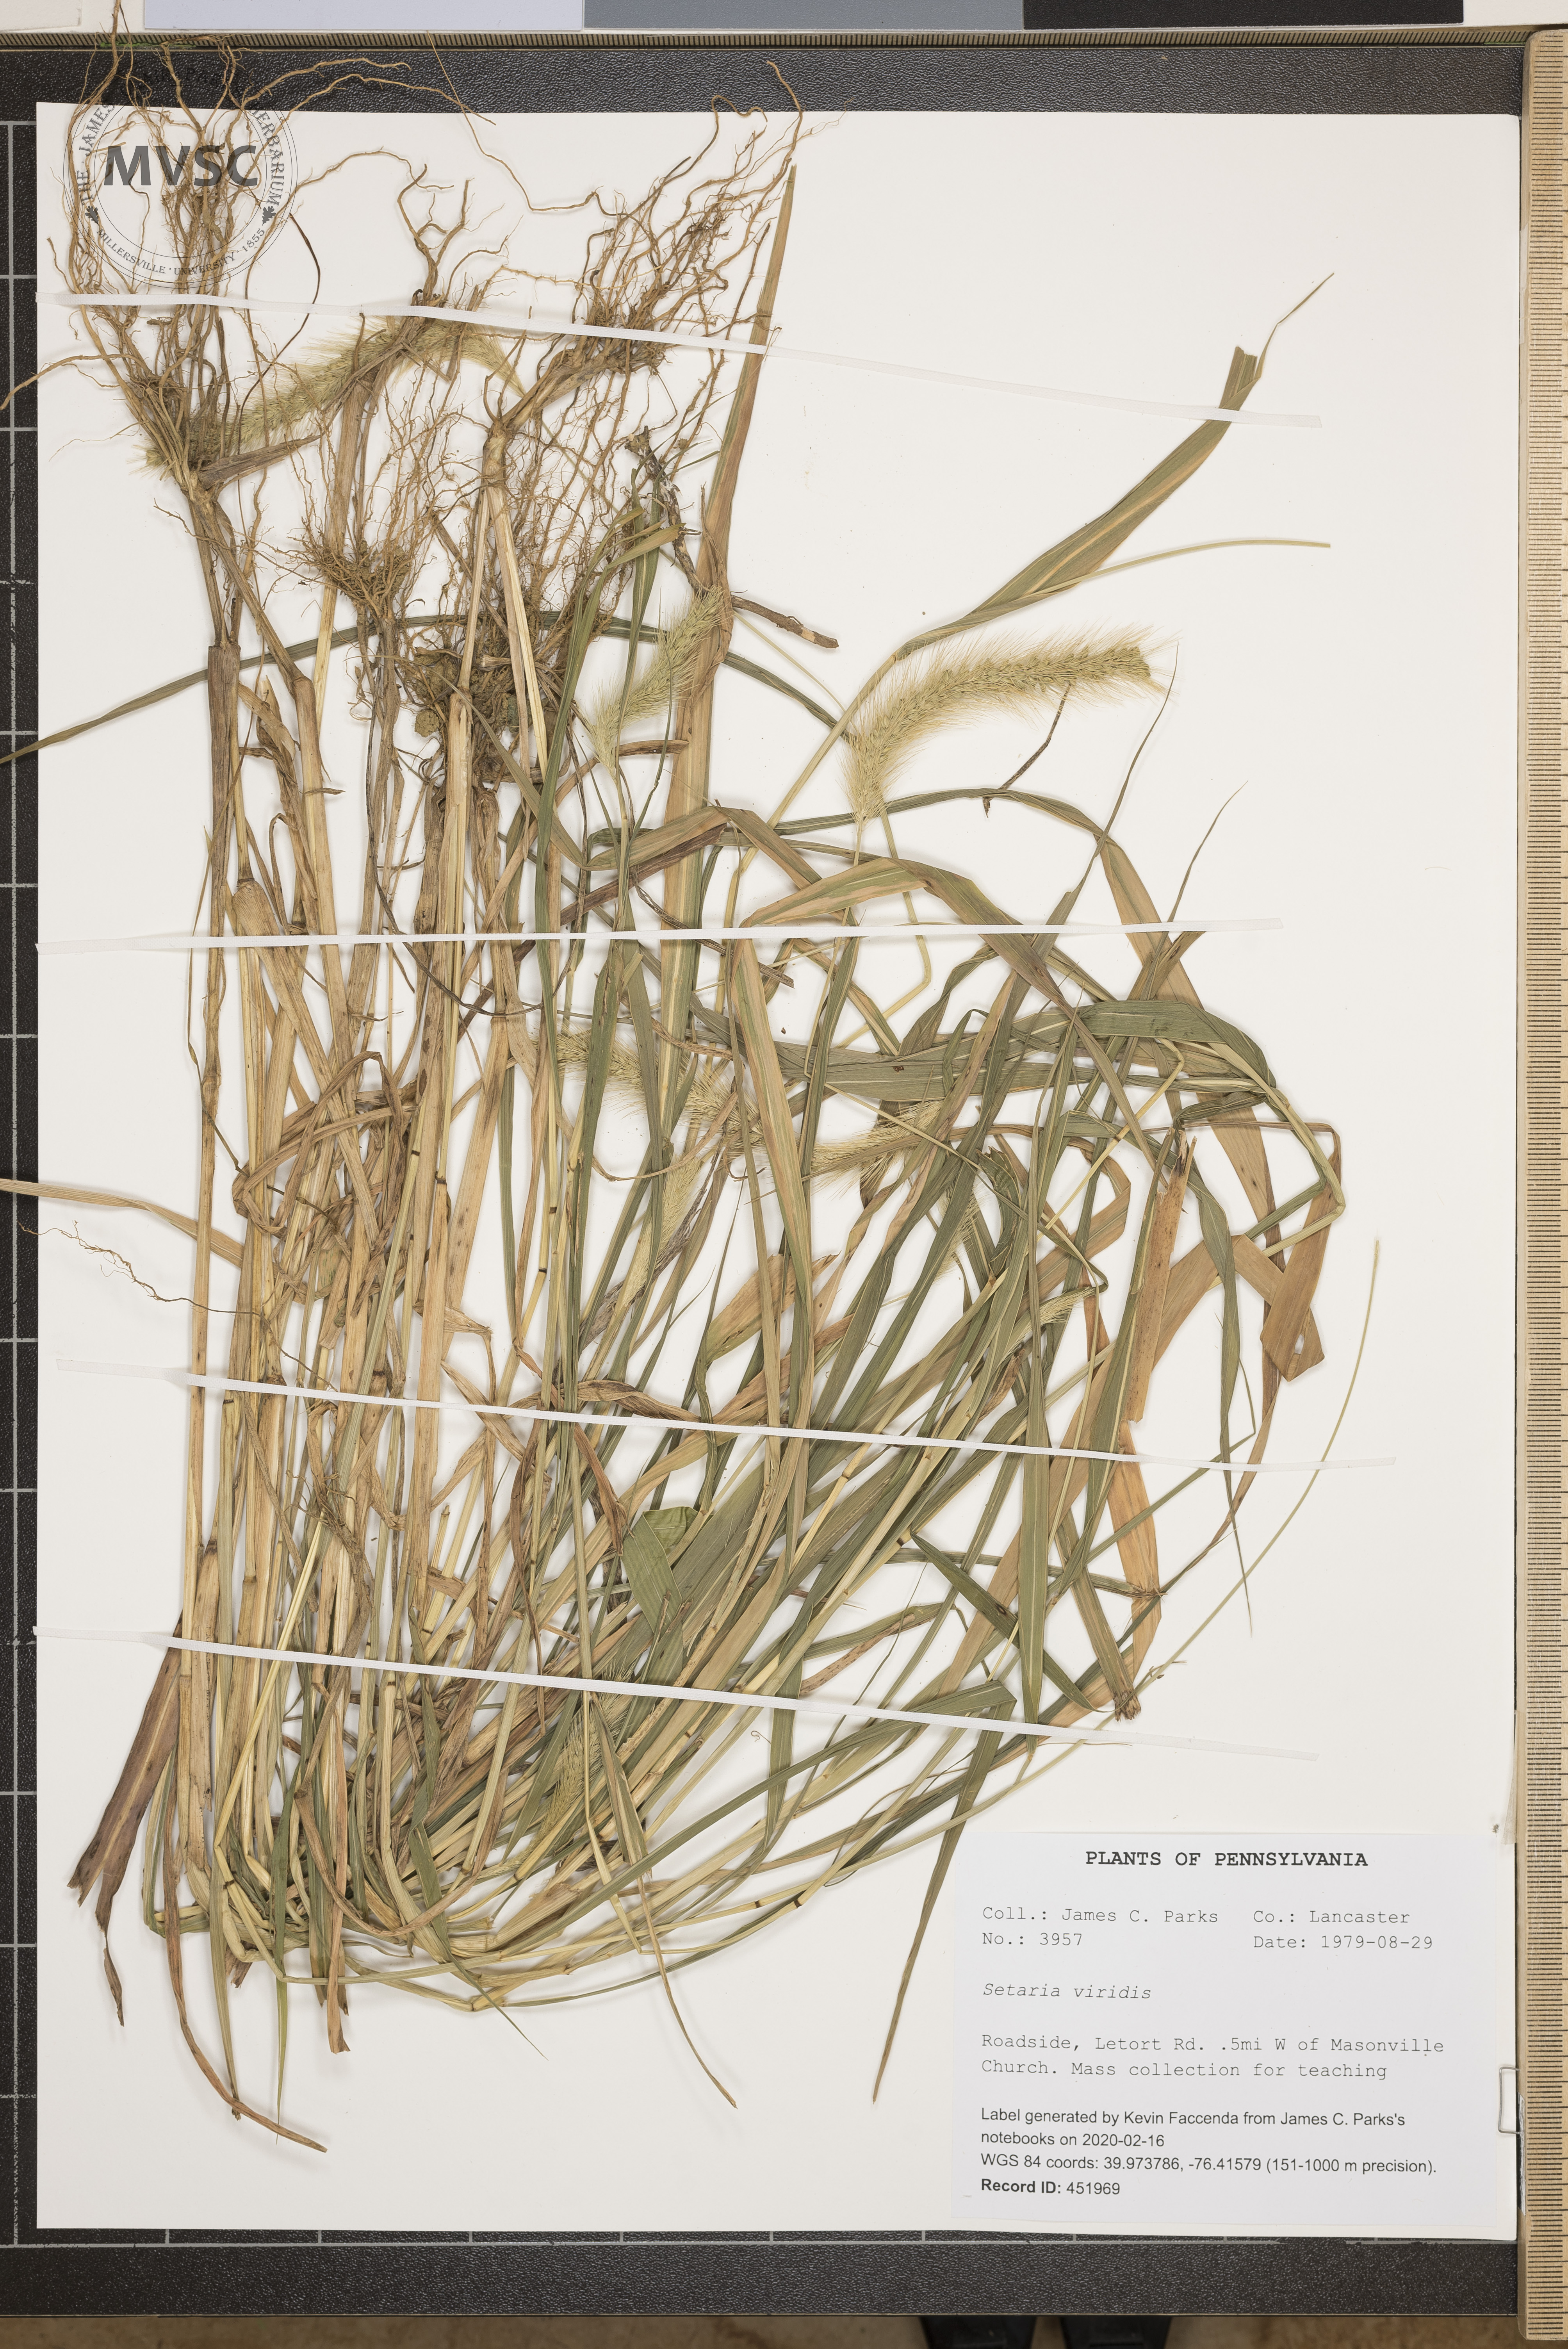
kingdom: Plantae
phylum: Tracheophyta
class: Liliopsida
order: Poales
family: Poaceae
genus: Setaria
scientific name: Setaria viridis
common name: Green bristlegrass
